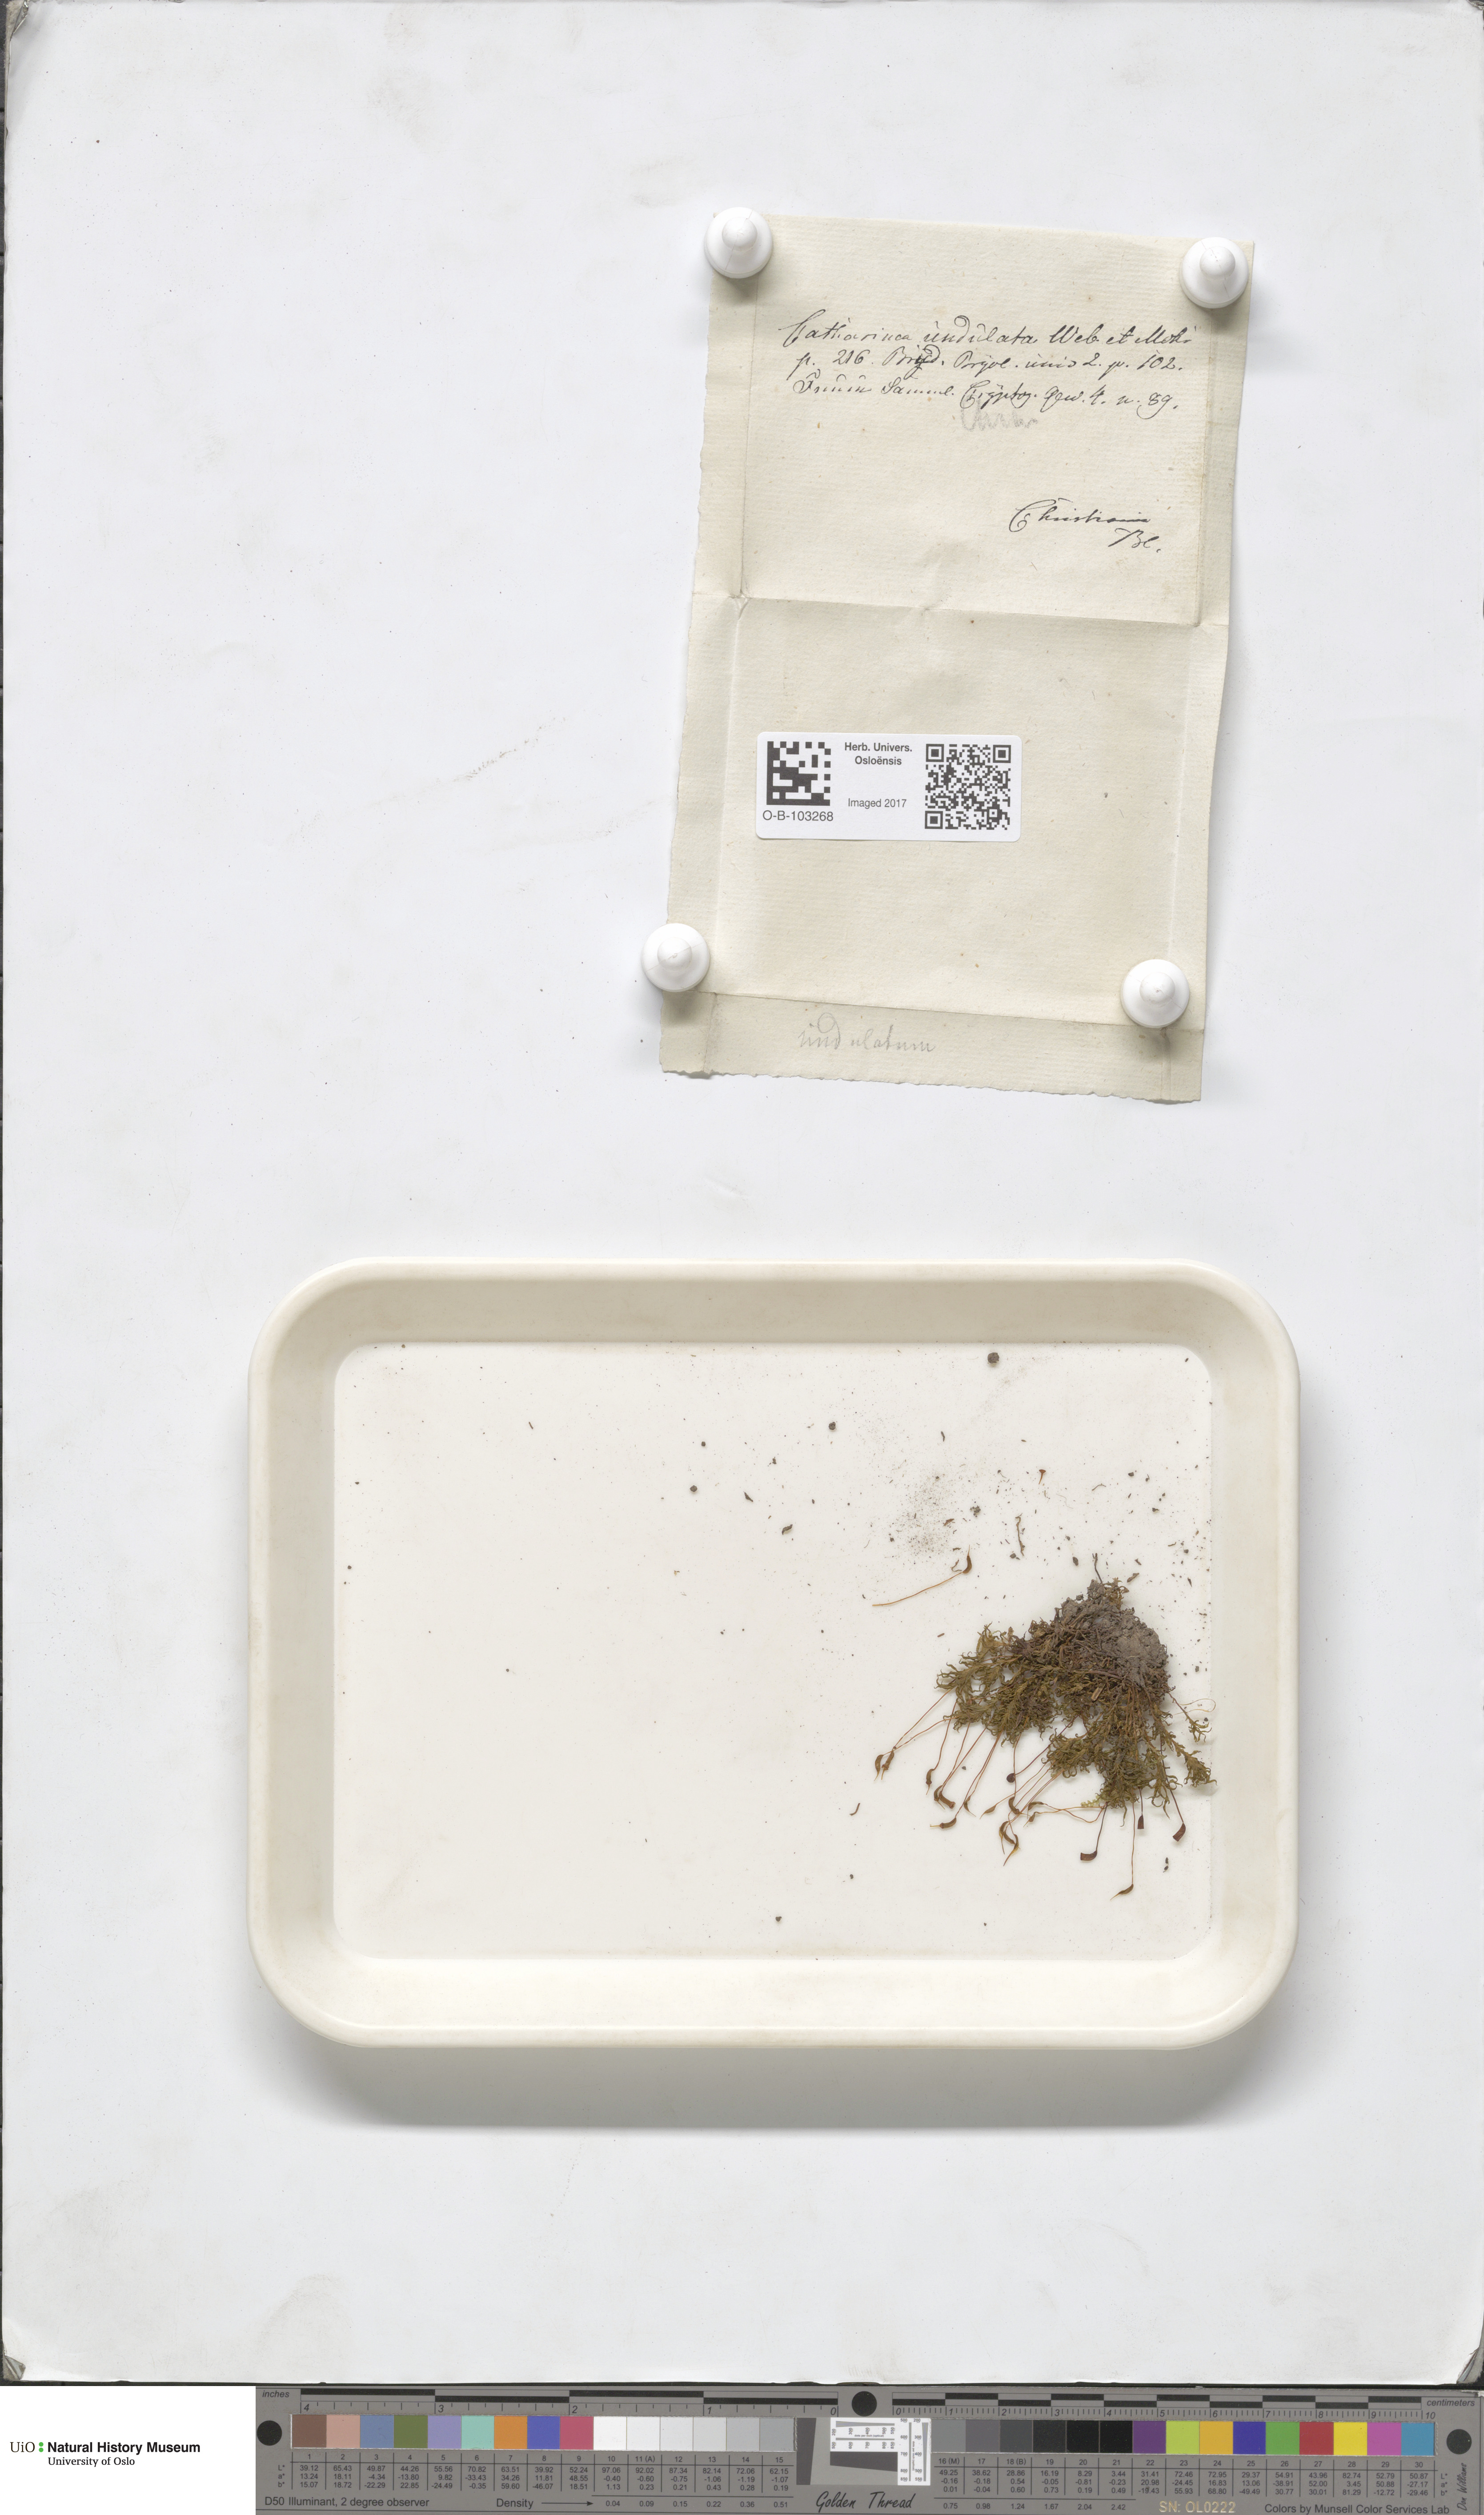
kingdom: Plantae
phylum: Bryophyta
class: Polytrichopsida
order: Polytrichales
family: Polytrichaceae
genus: Atrichum
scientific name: Atrichum undulatum
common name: Common smoothcap
